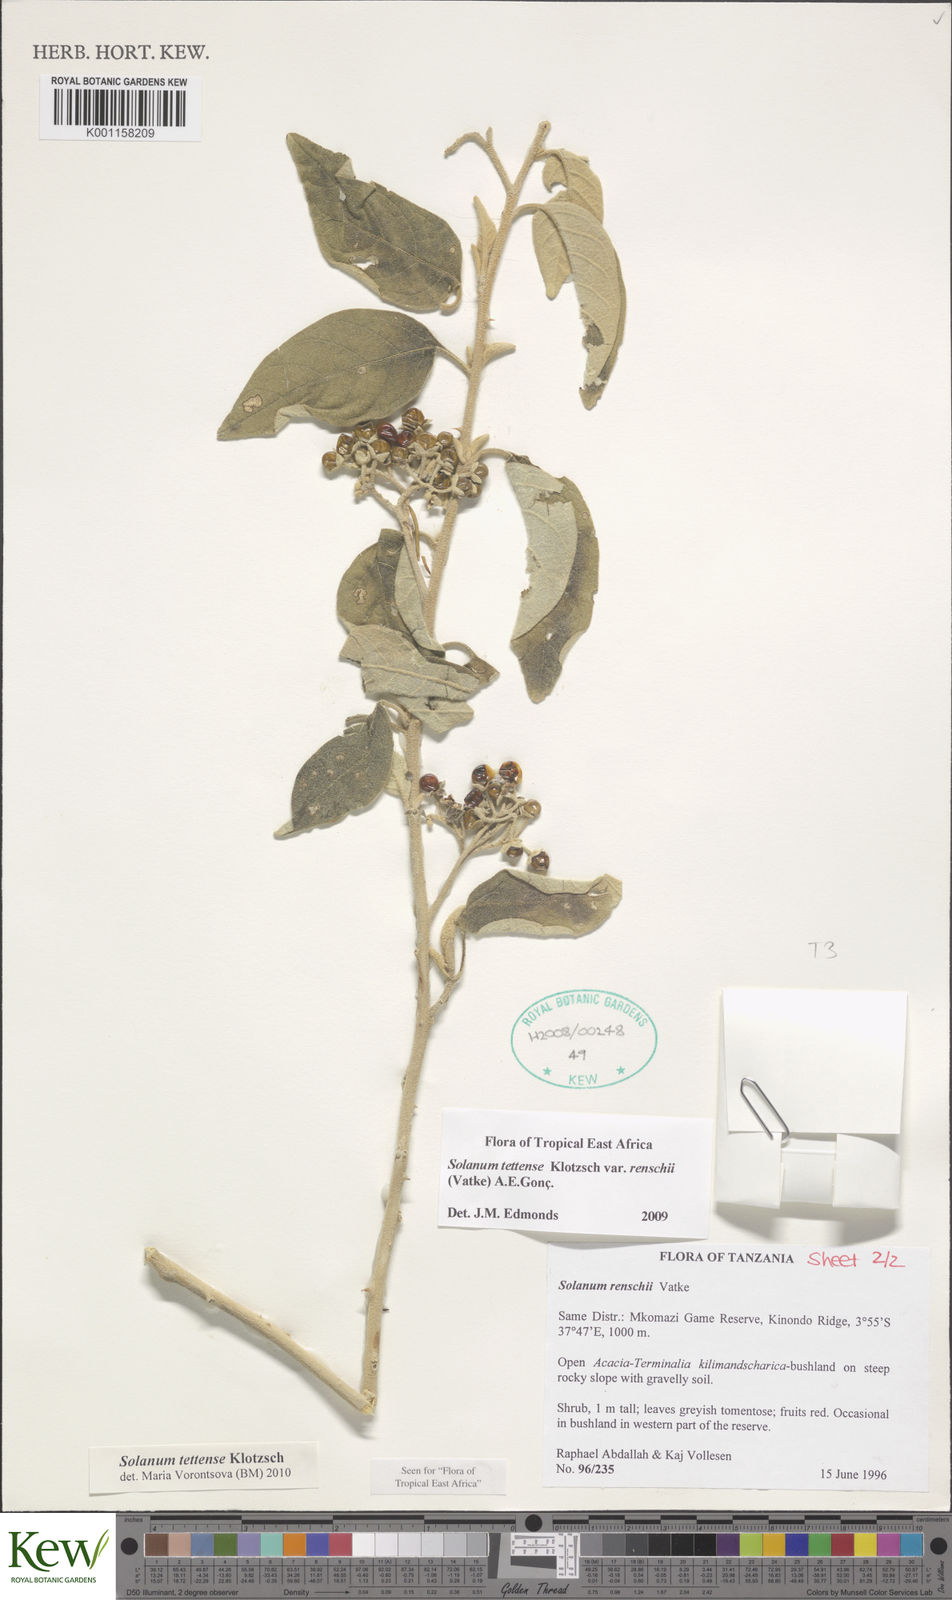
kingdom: Plantae
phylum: Tracheophyta
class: Magnoliopsida
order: Solanales
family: Solanaceae
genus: Solanum
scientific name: Solanum tettense
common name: Mozambique bitter apple
